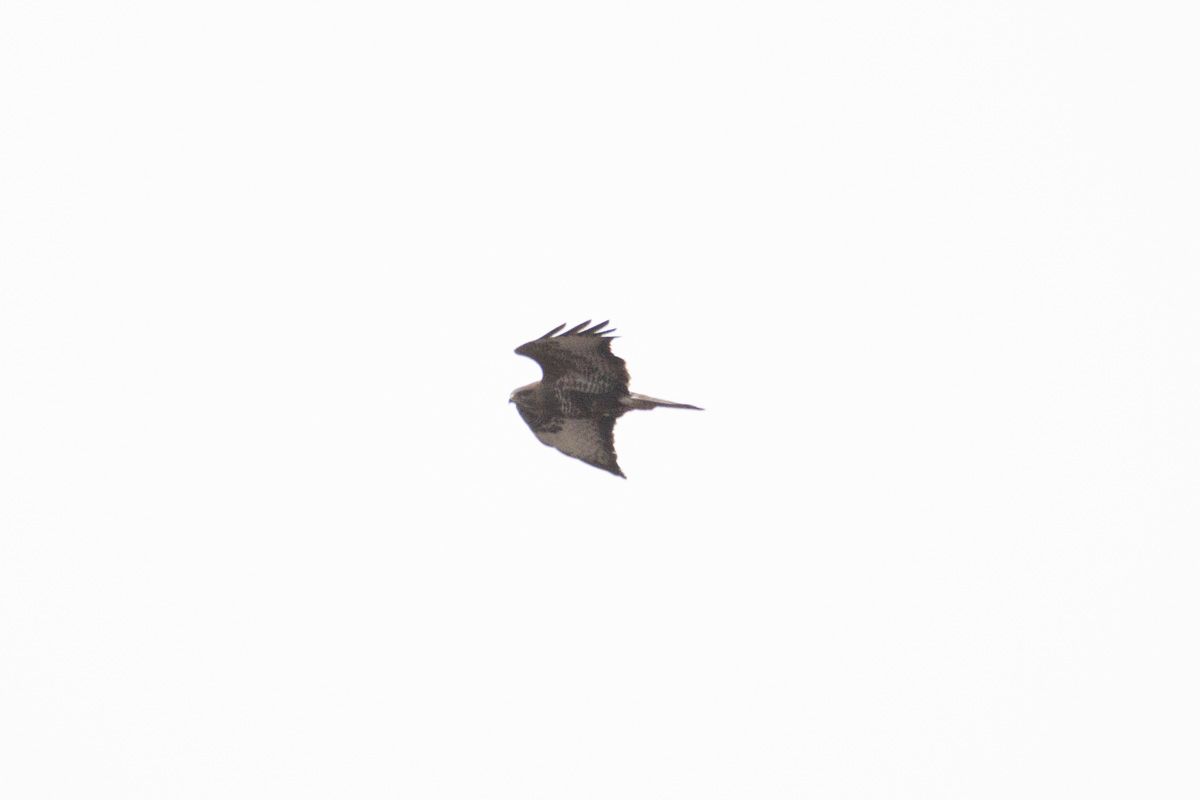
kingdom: Animalia
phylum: Chordata
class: Aves
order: Accipitriformes
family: Accipitridae
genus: Buteo
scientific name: Buteo buteo
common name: Common buzzard
